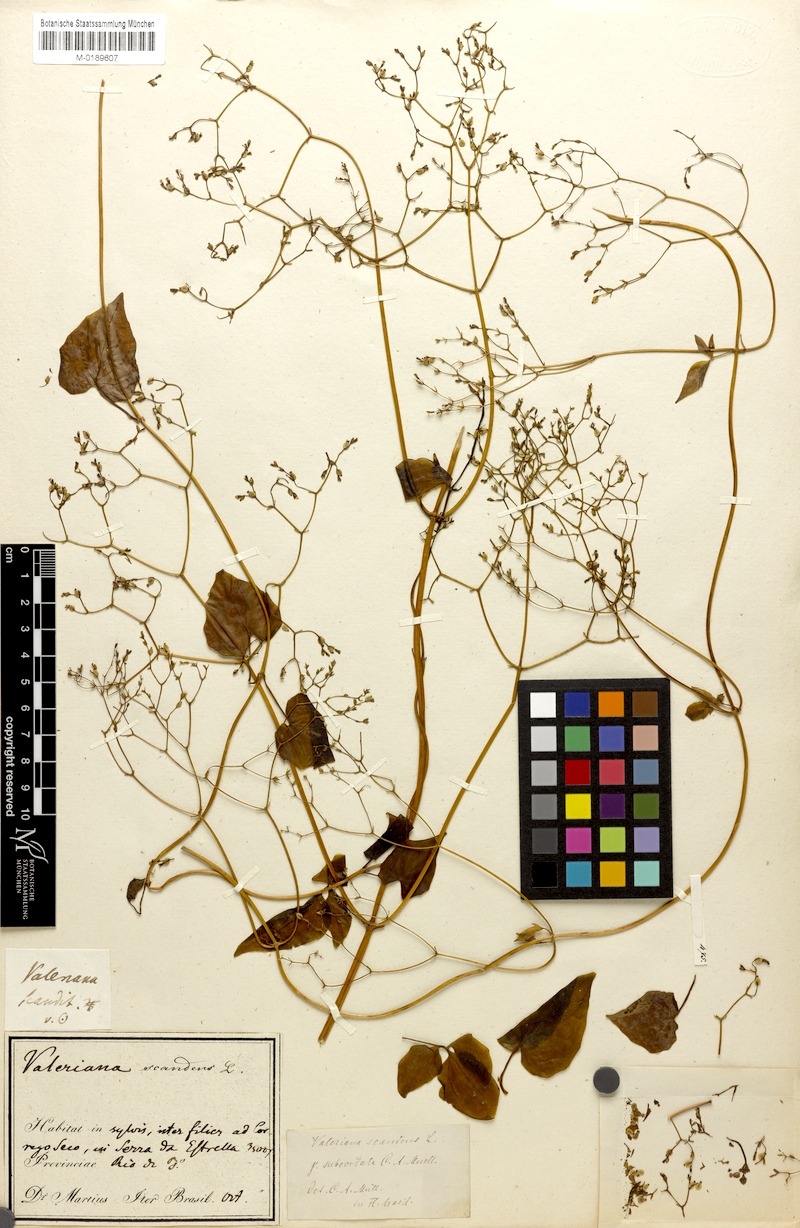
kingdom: Plantae
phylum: Tracheophyta
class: Magnoliopsida
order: Dipsacales
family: Caprifoliaceae
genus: Valeriana
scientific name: Valeriana scandens
